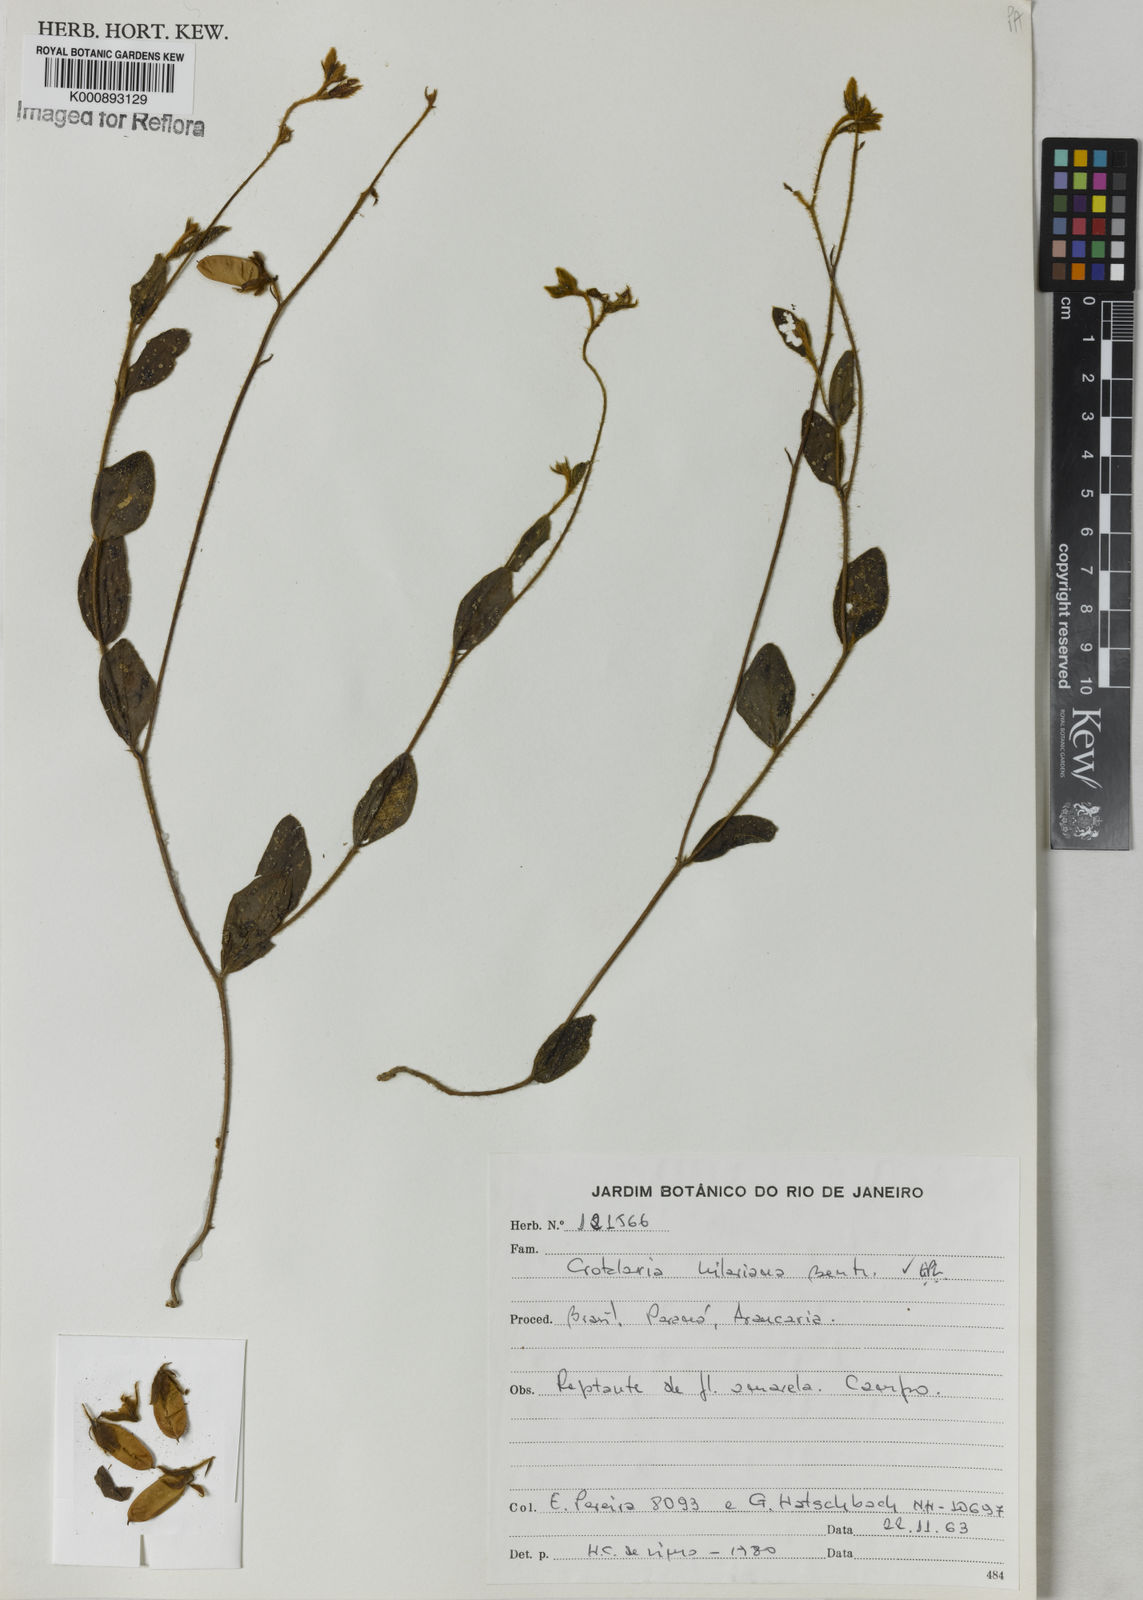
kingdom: Plantae
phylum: Tracheophyta
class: Magnoliopsida
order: Fabales
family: Fabaceae
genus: Crotalaria
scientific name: Crotalaria hilariana
